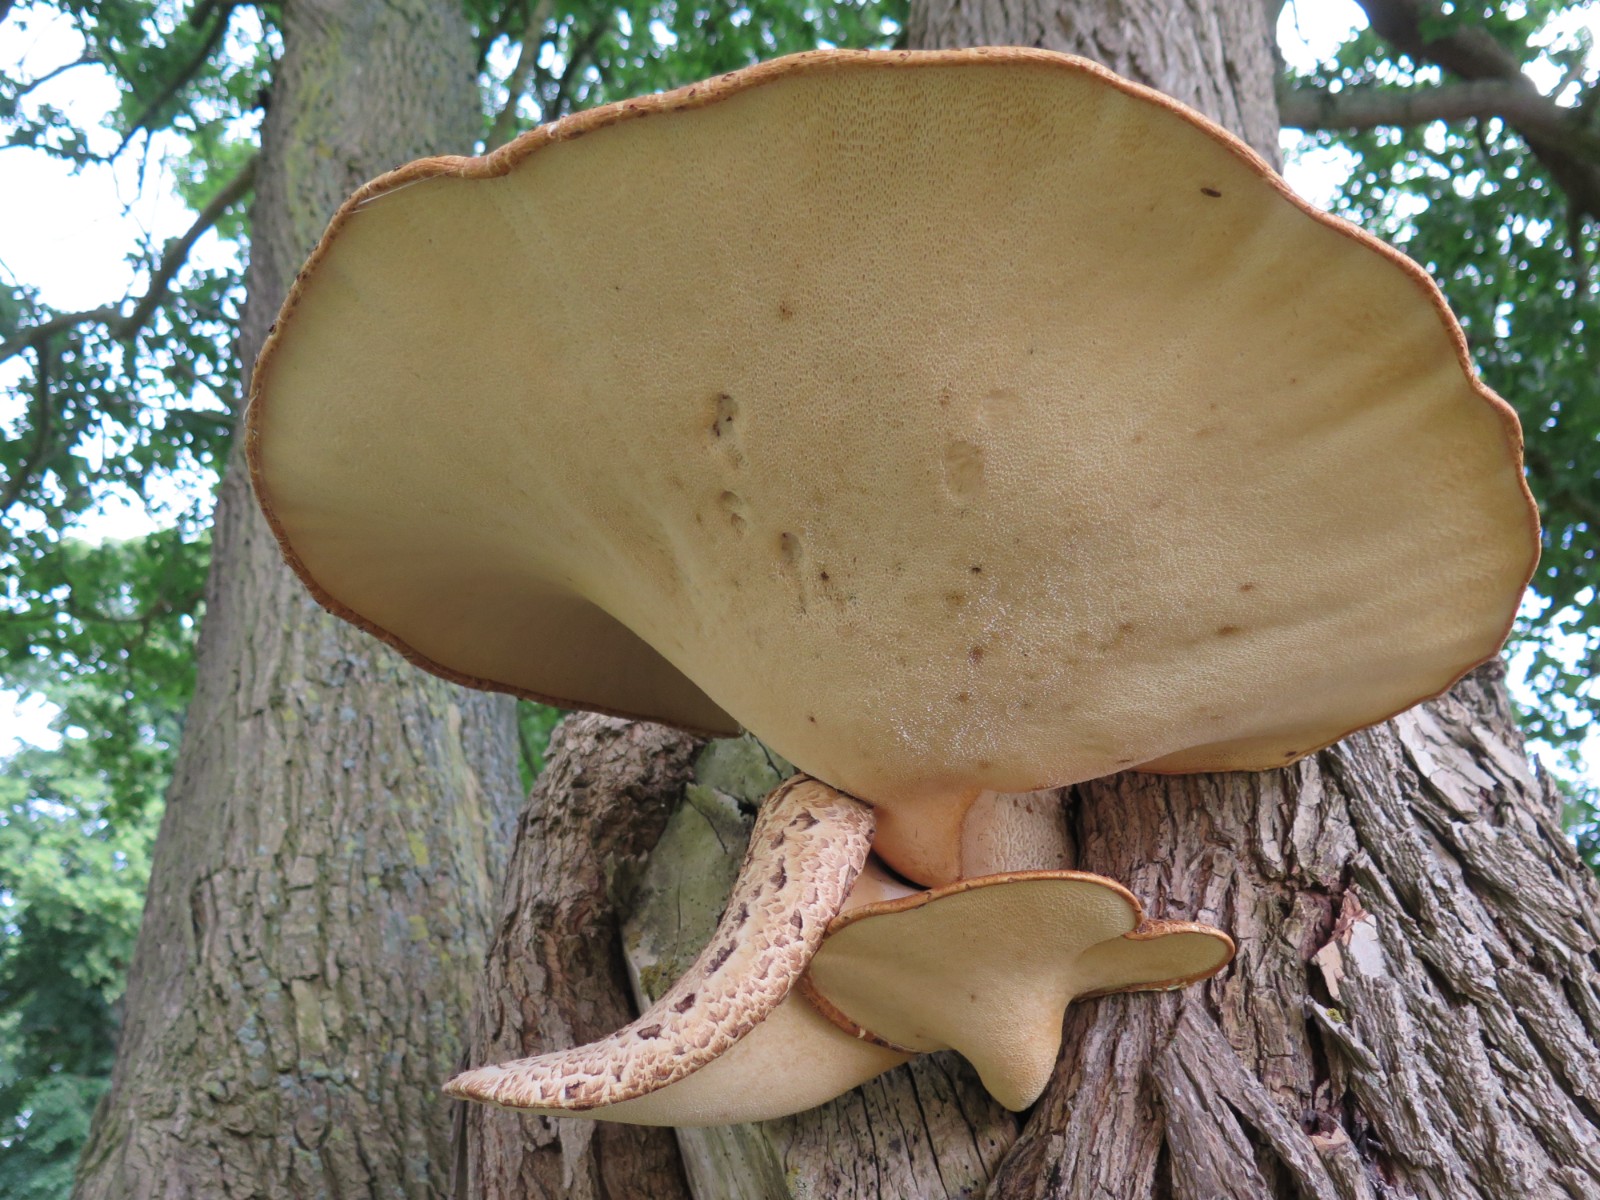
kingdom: Fungi
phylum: Basidiomycota
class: Agaricomycetes
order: Polyporales
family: Polyporaceae
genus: Cerioporus
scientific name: Cerioporus squamosus
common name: skællet stilkporesvamp
